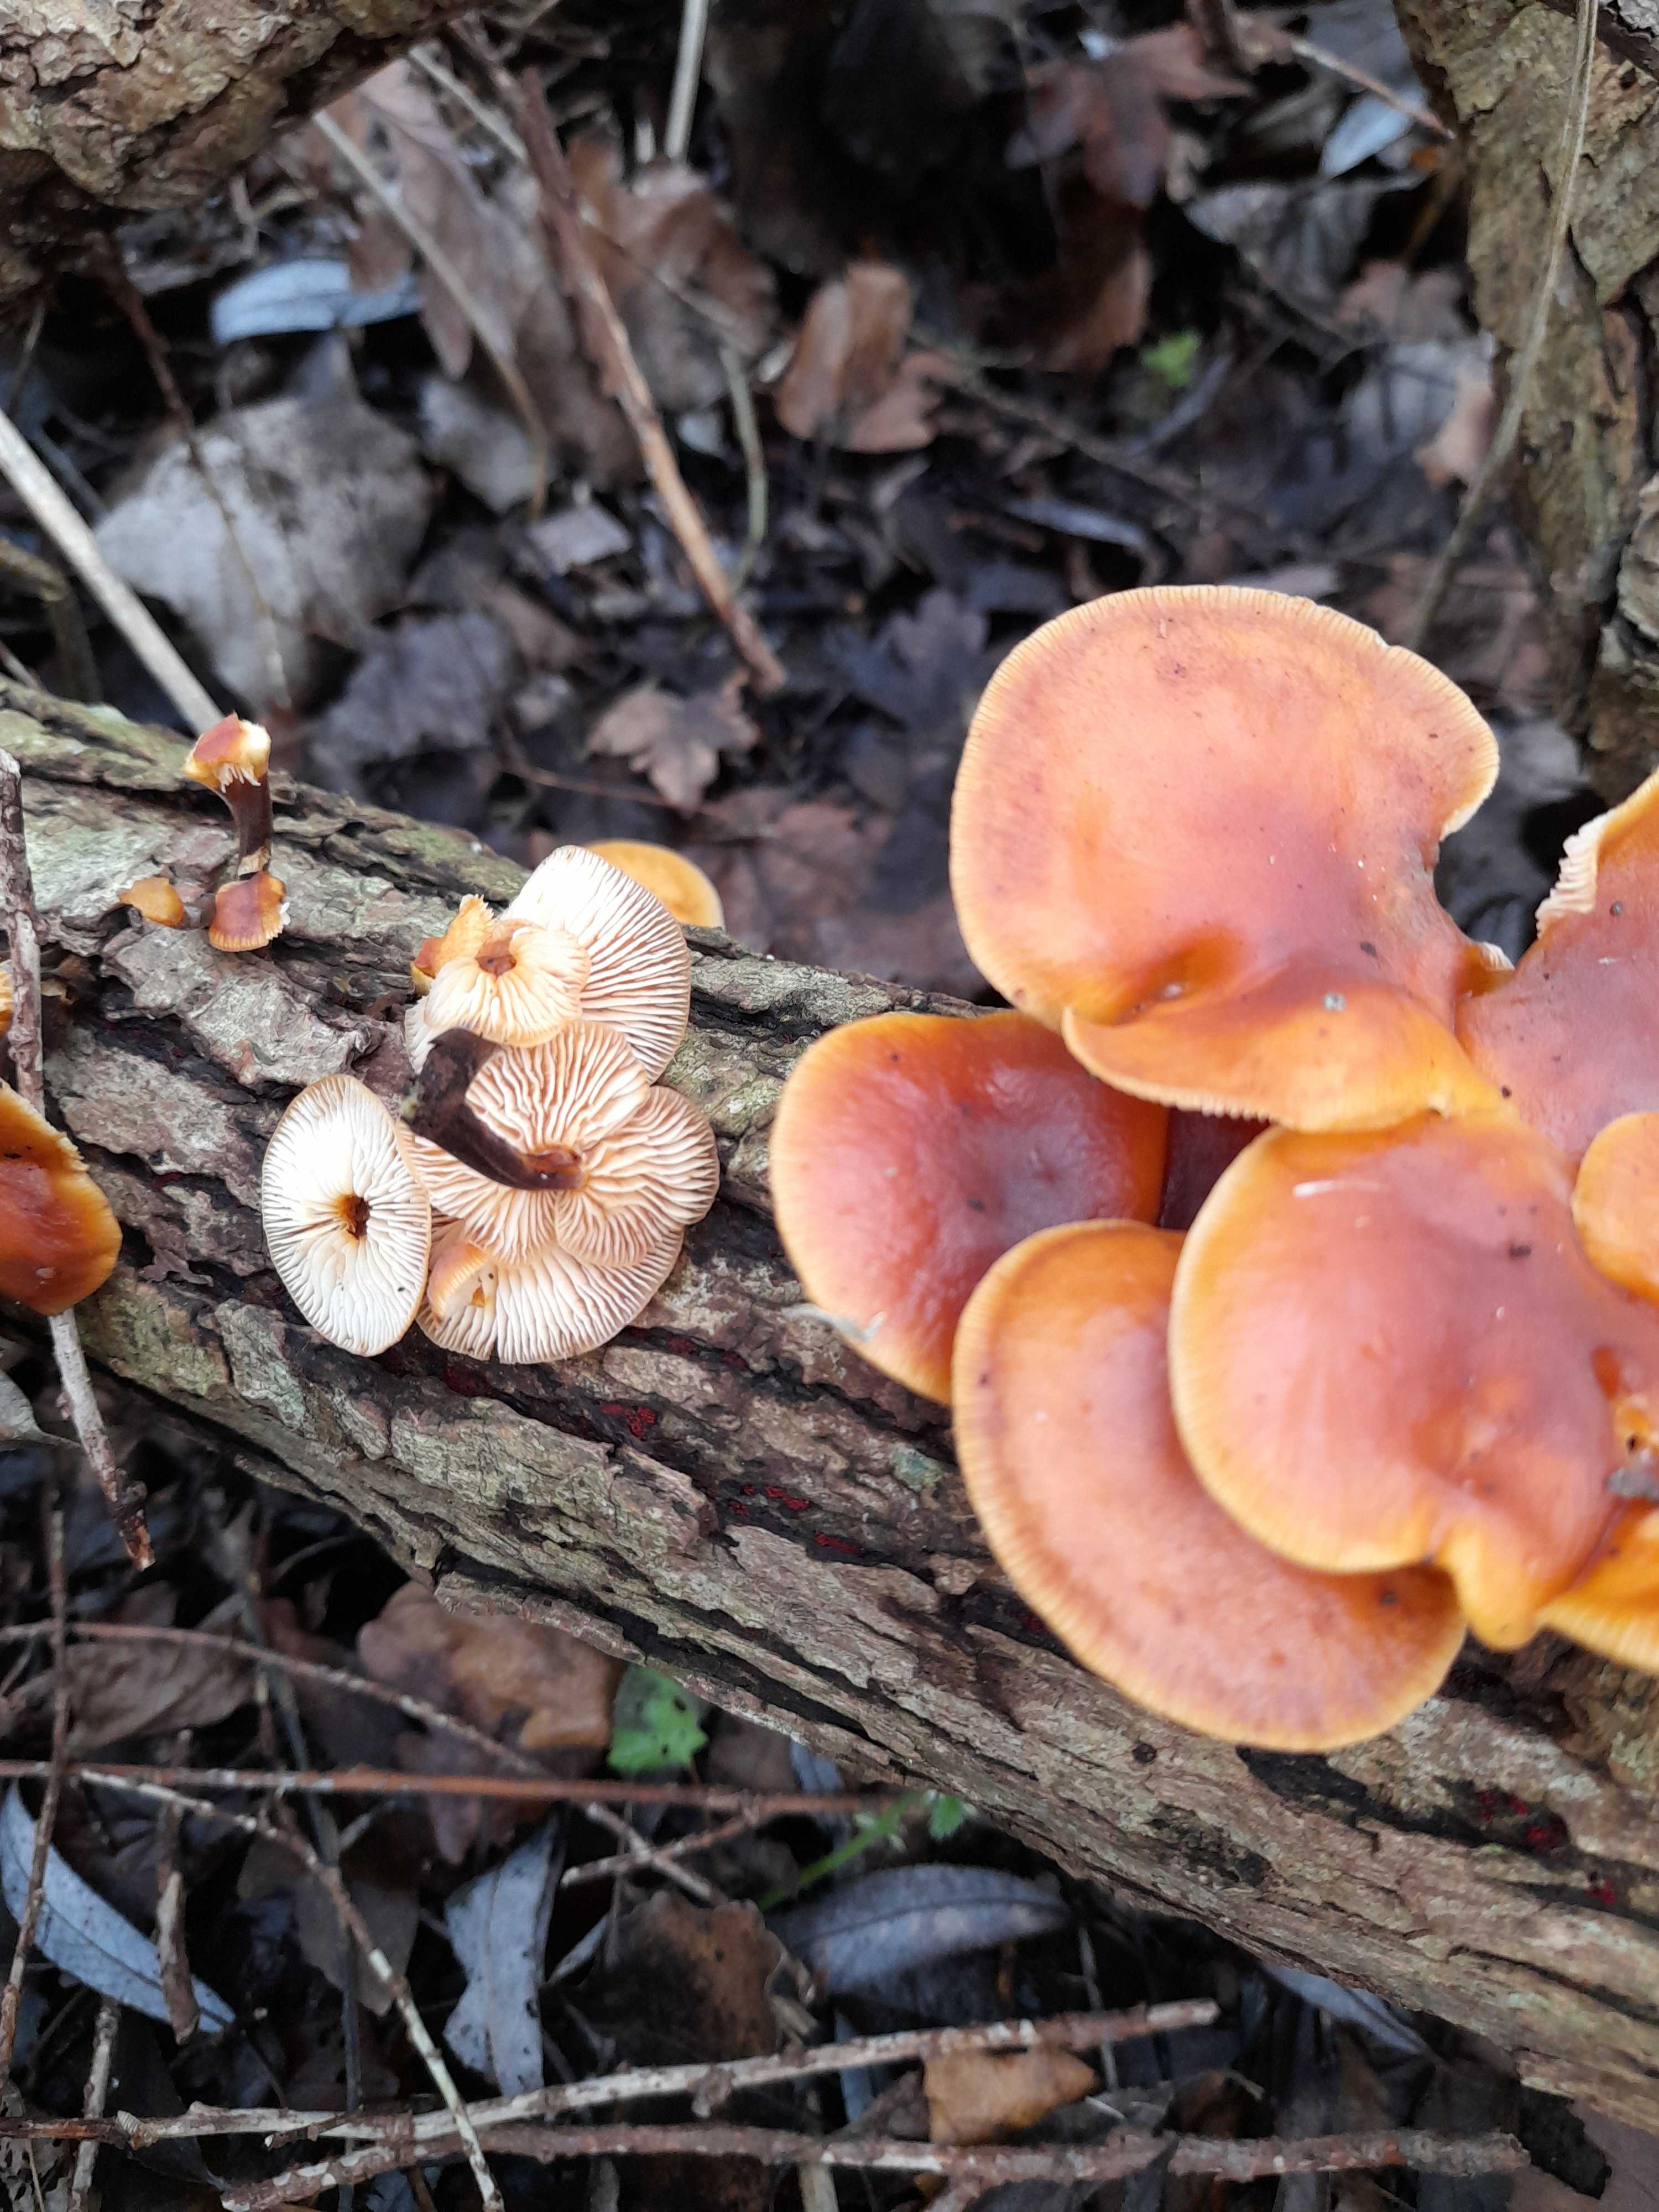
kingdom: Fungi
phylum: Basidiomycota
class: Agaricomycetes
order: Agaricales
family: Physalacriaceae
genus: Flammulina
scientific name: Flammulina velutipes
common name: gul fløjlsfod
